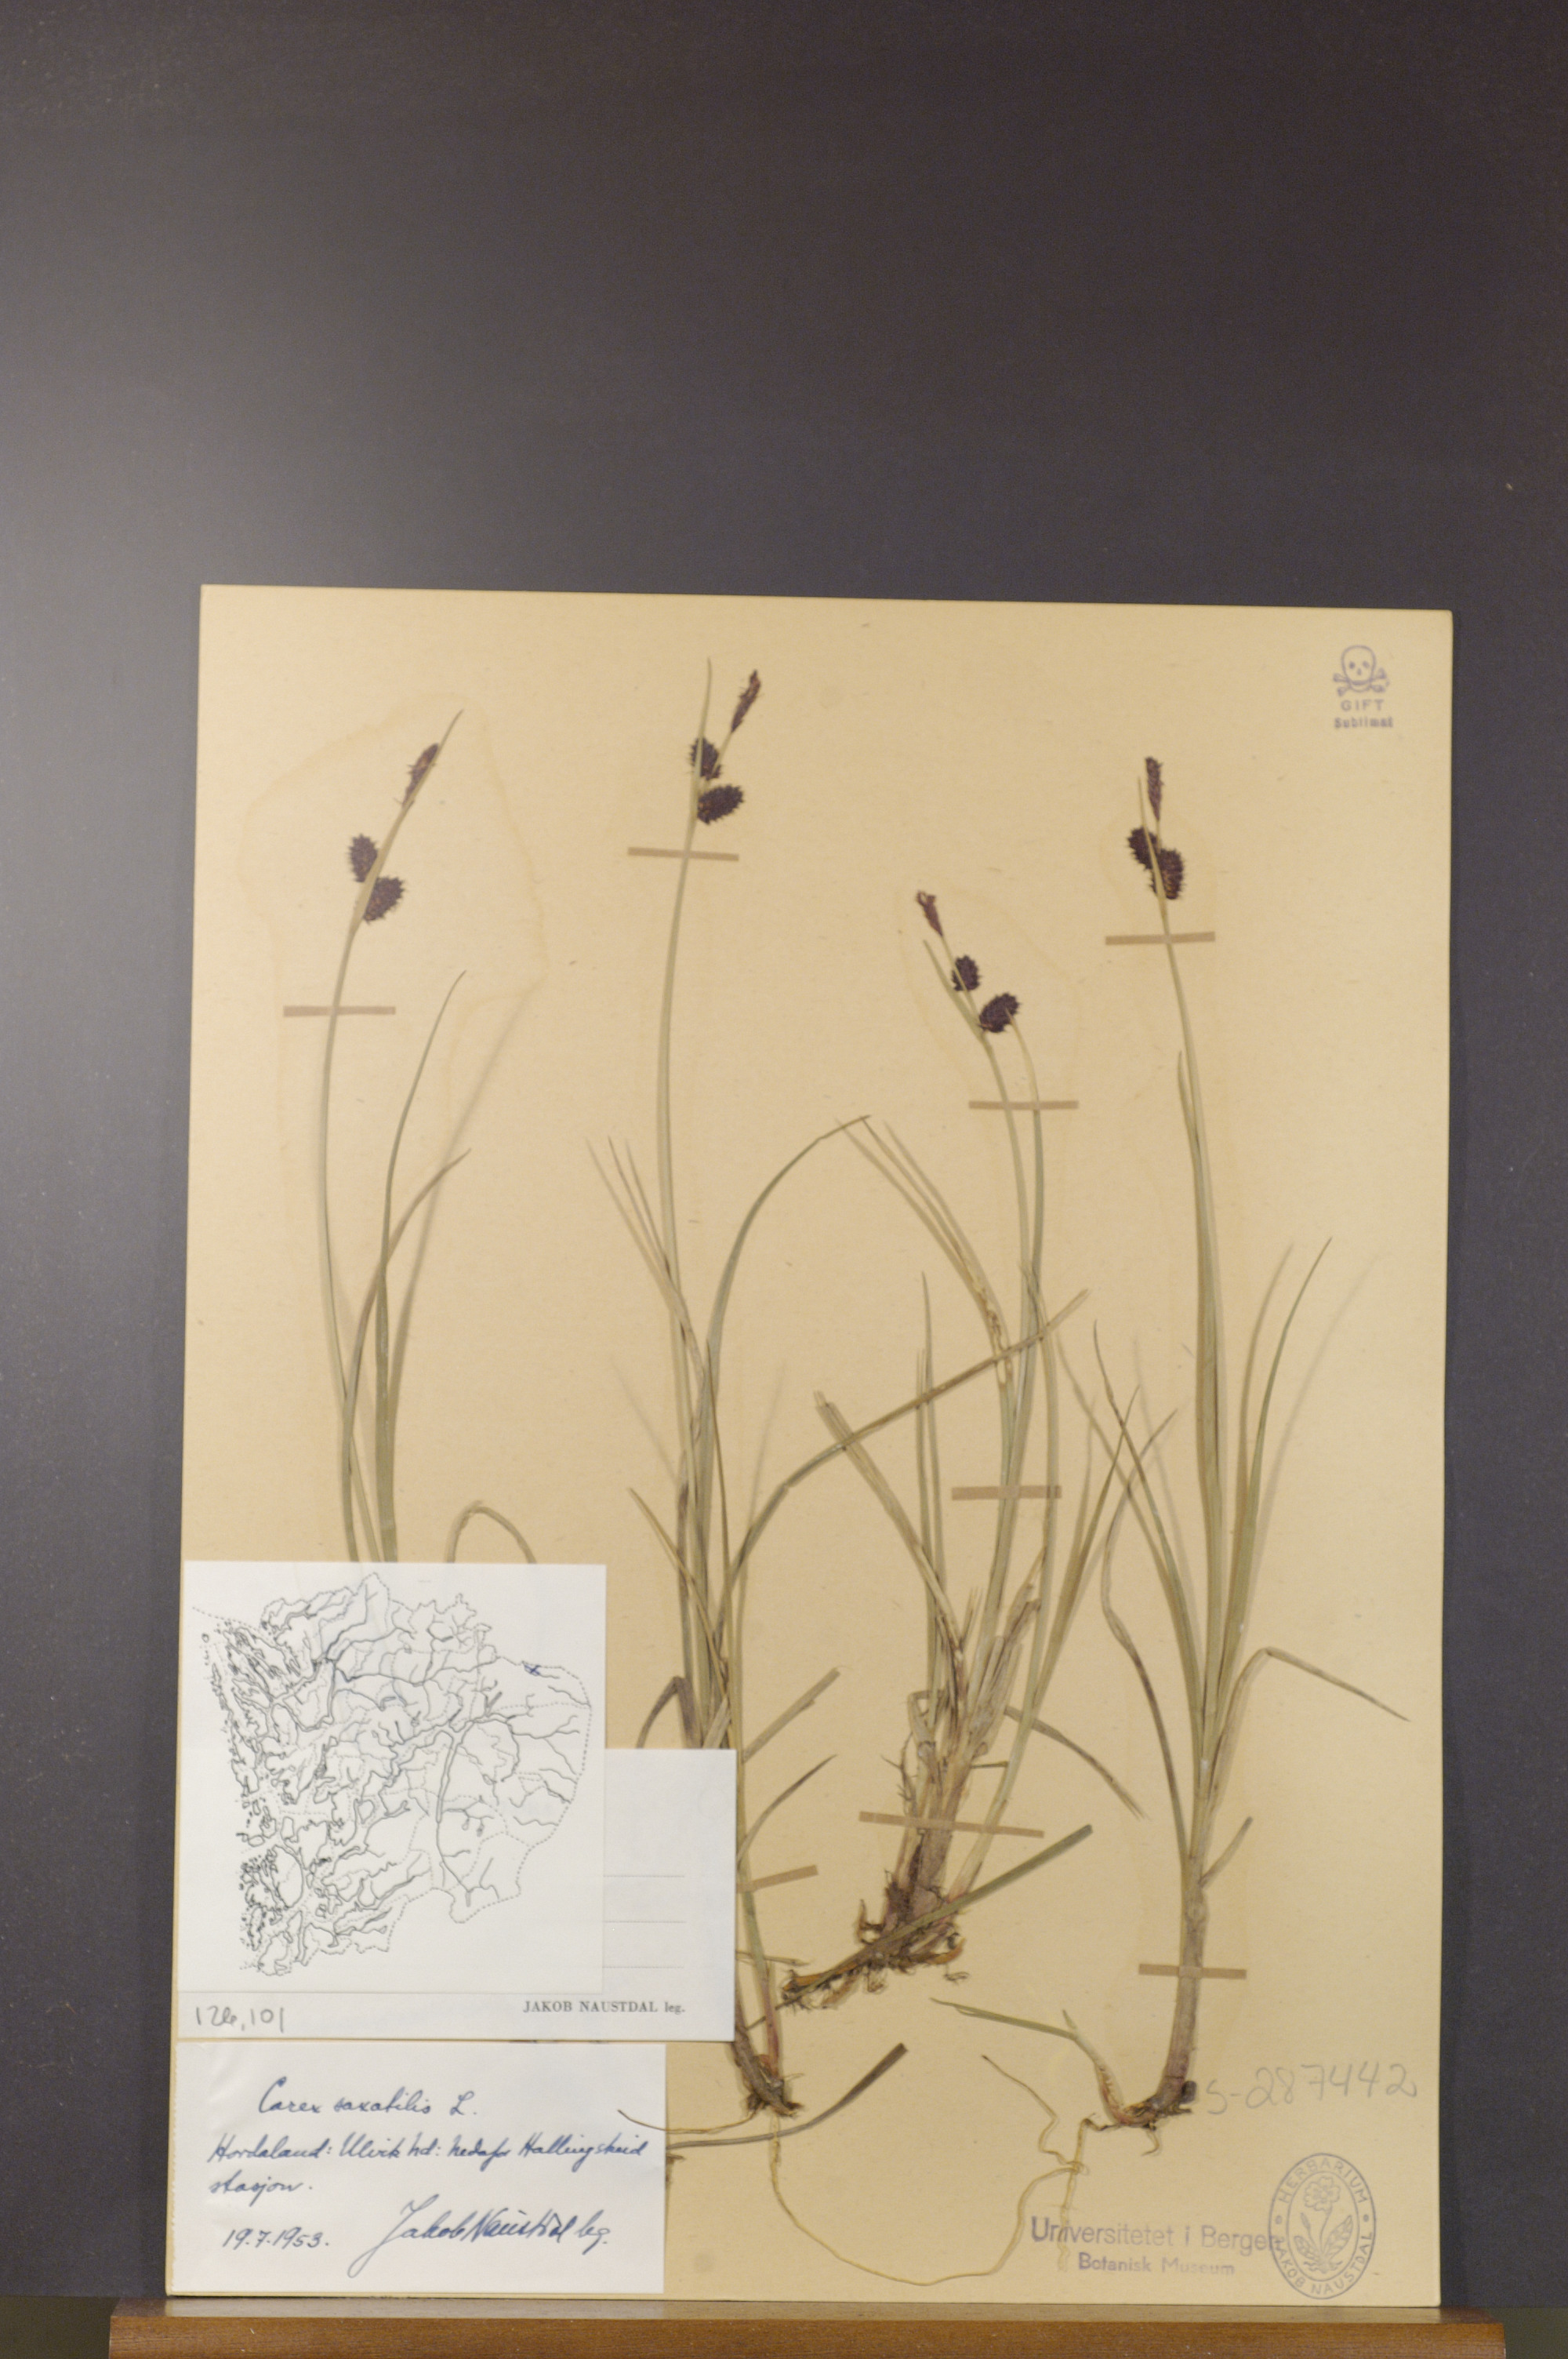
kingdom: Plantae
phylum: Tracheophyta
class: Liliopsida
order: Poales
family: Cyperaceae
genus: Carex
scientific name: Carex saxatilis
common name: Russet sedge
